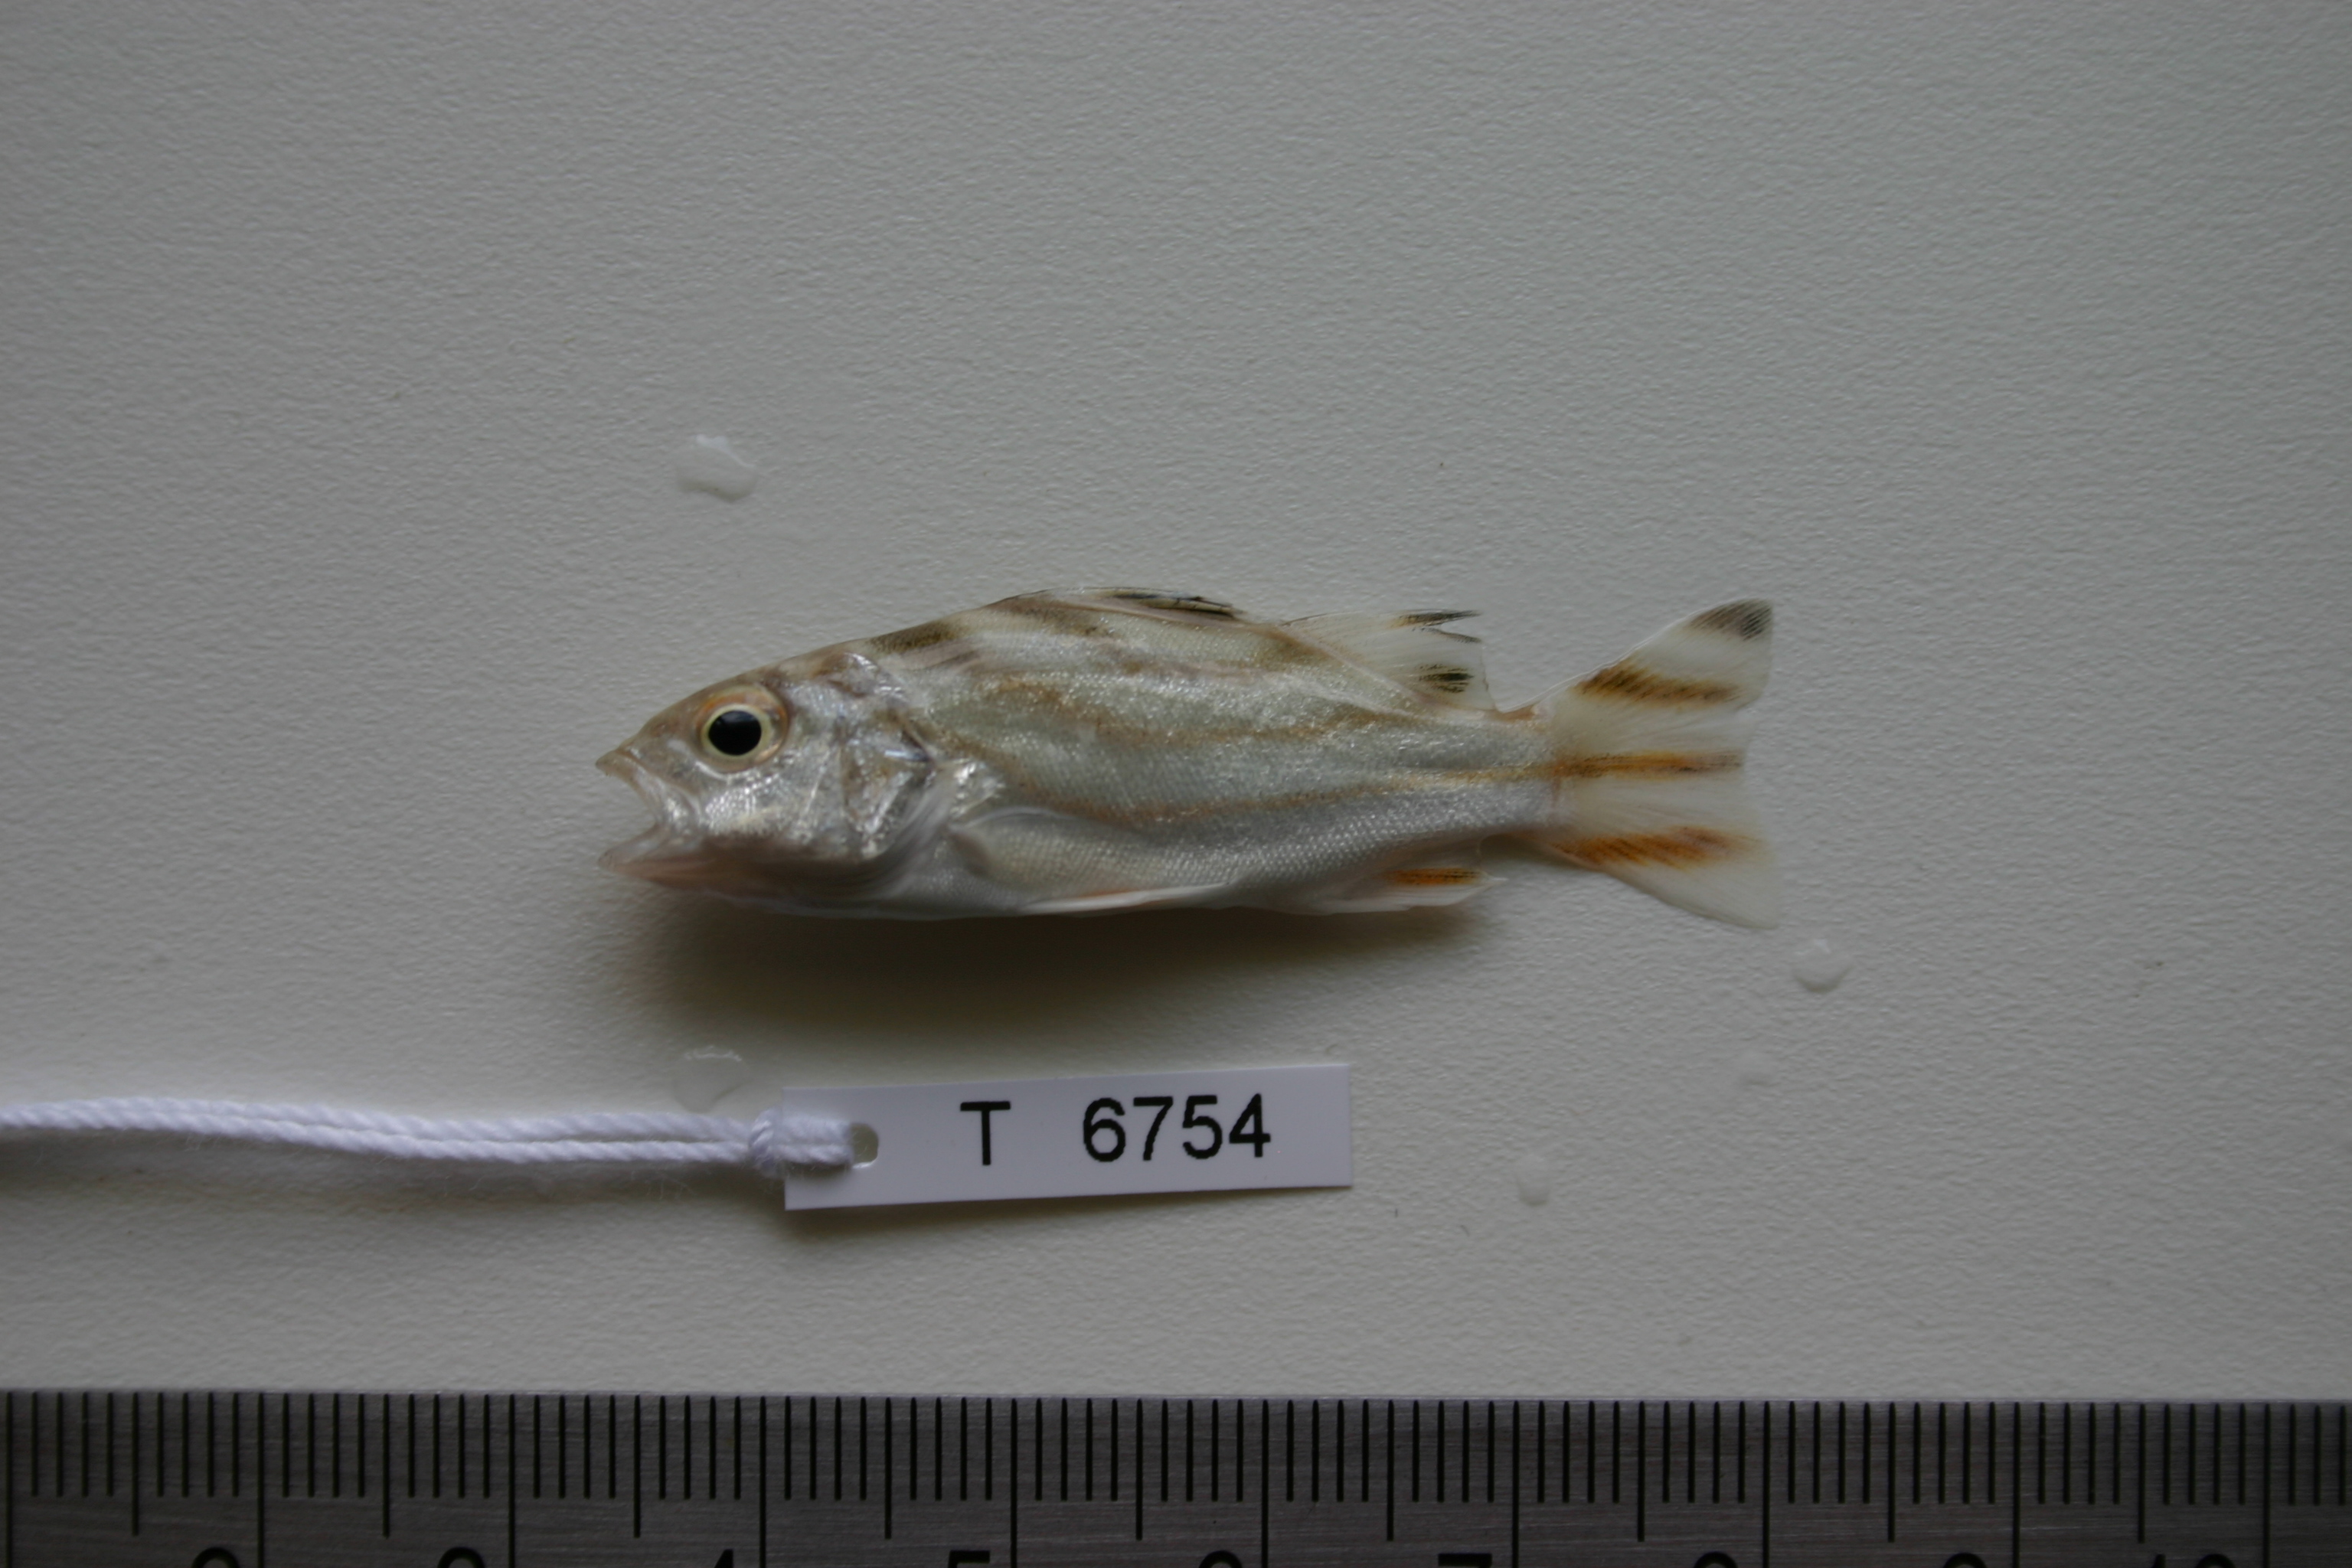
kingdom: Animalia
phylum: Chordata
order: Perciformes
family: Terapontidae
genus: Terapon
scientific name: Terapon jarbua
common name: Jarbua terapon
